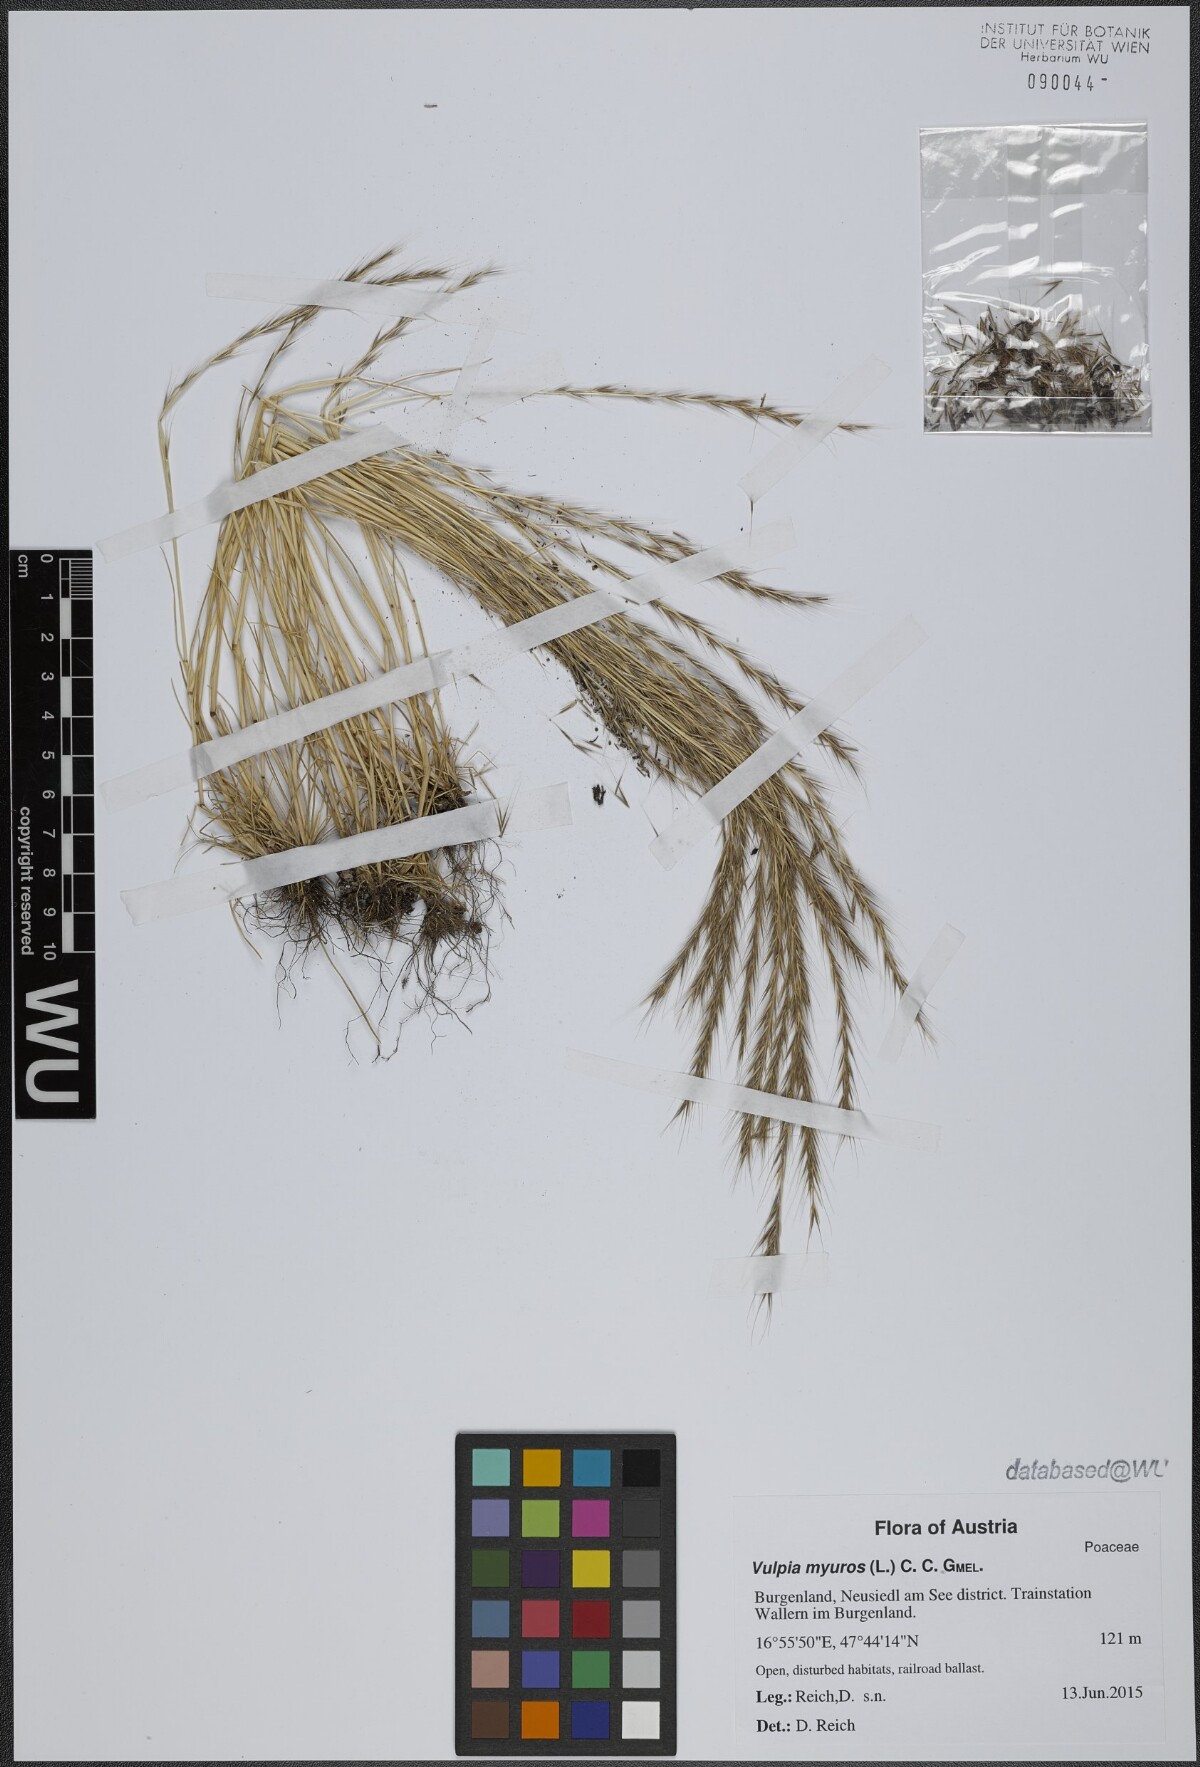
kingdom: Plantae
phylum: Tracheophyta
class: Liliopsida
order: Poales
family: Poaceae
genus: Festuca
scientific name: Festuca myuros
